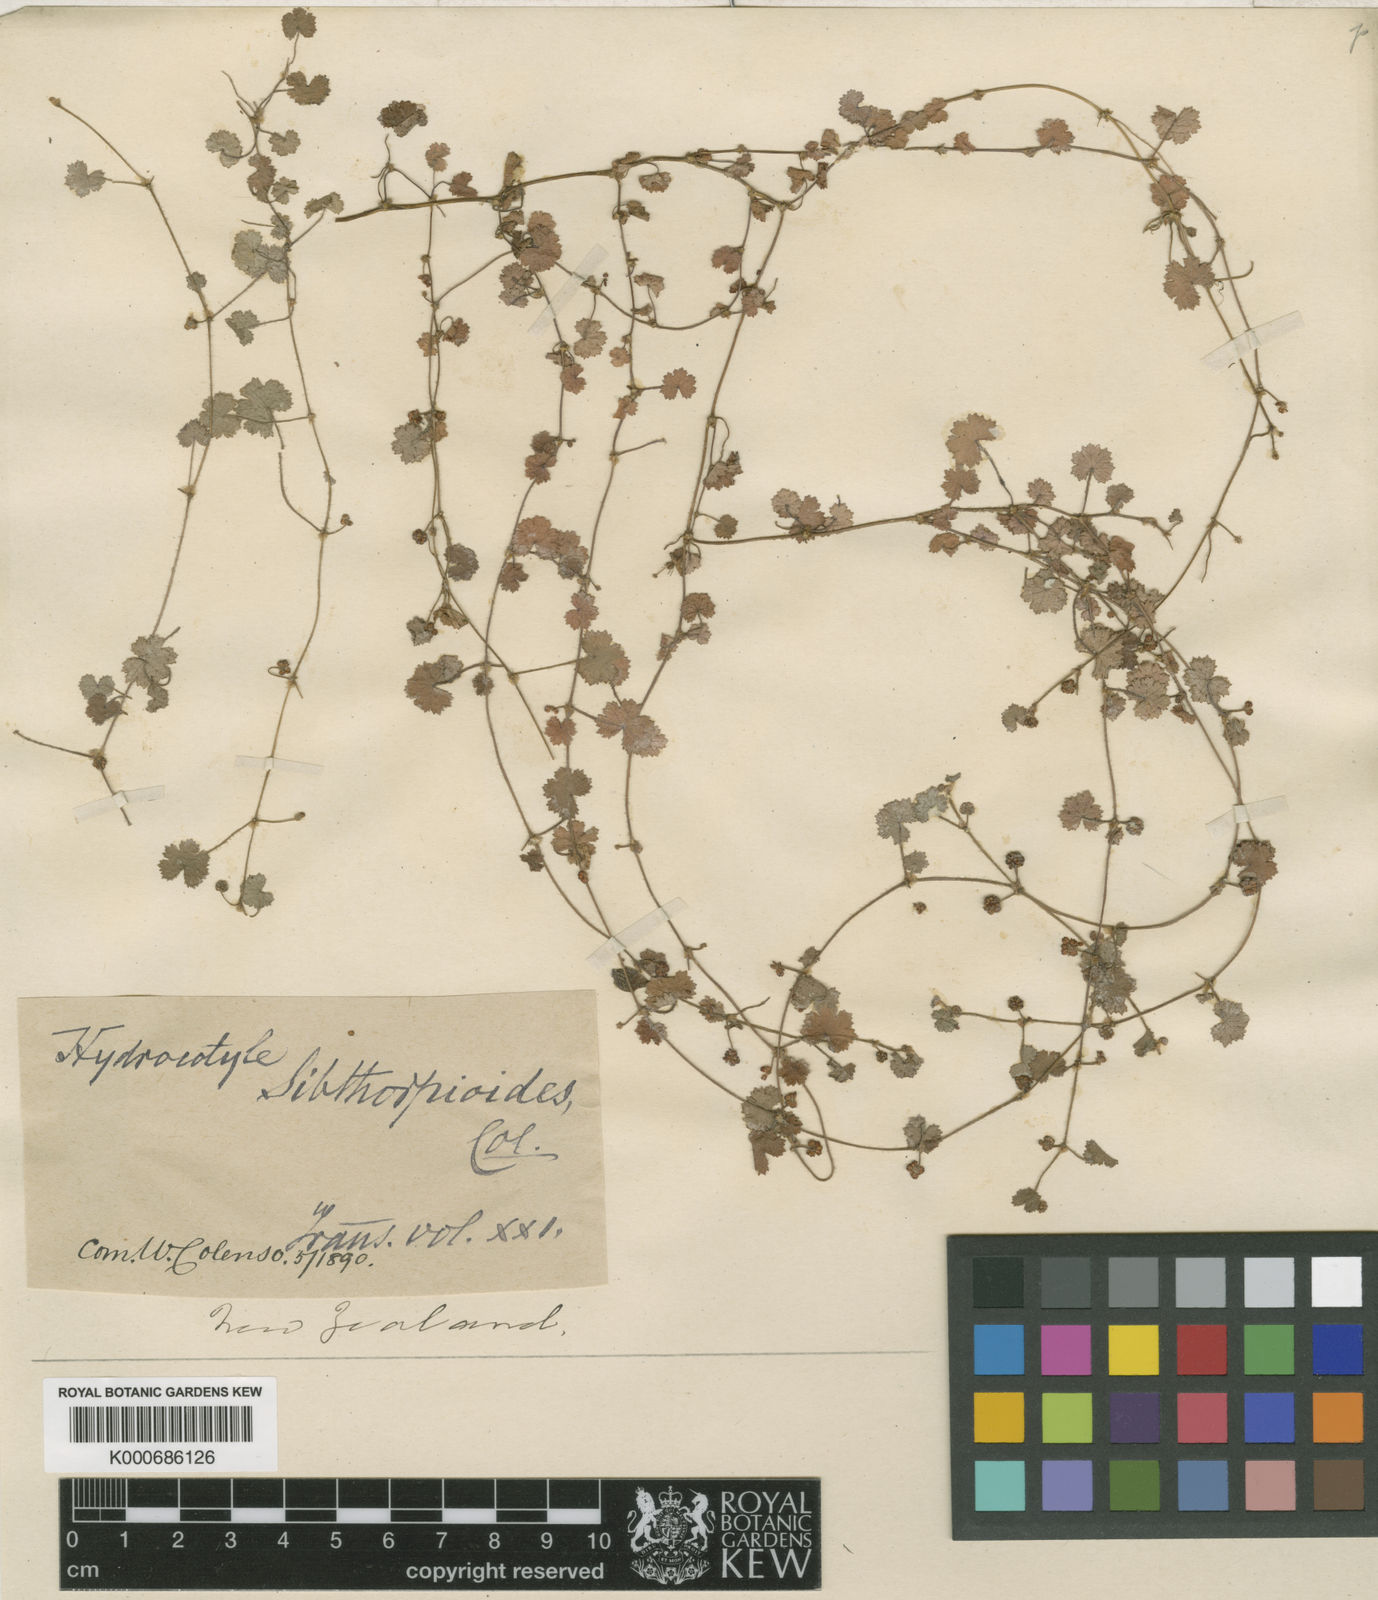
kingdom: Plantae
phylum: Tracheophyta
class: Magnoliopsida
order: Apiales
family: Araliaceae
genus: Hydrocotyle
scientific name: Hydrocotyle moschata
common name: Hairy pennywort
